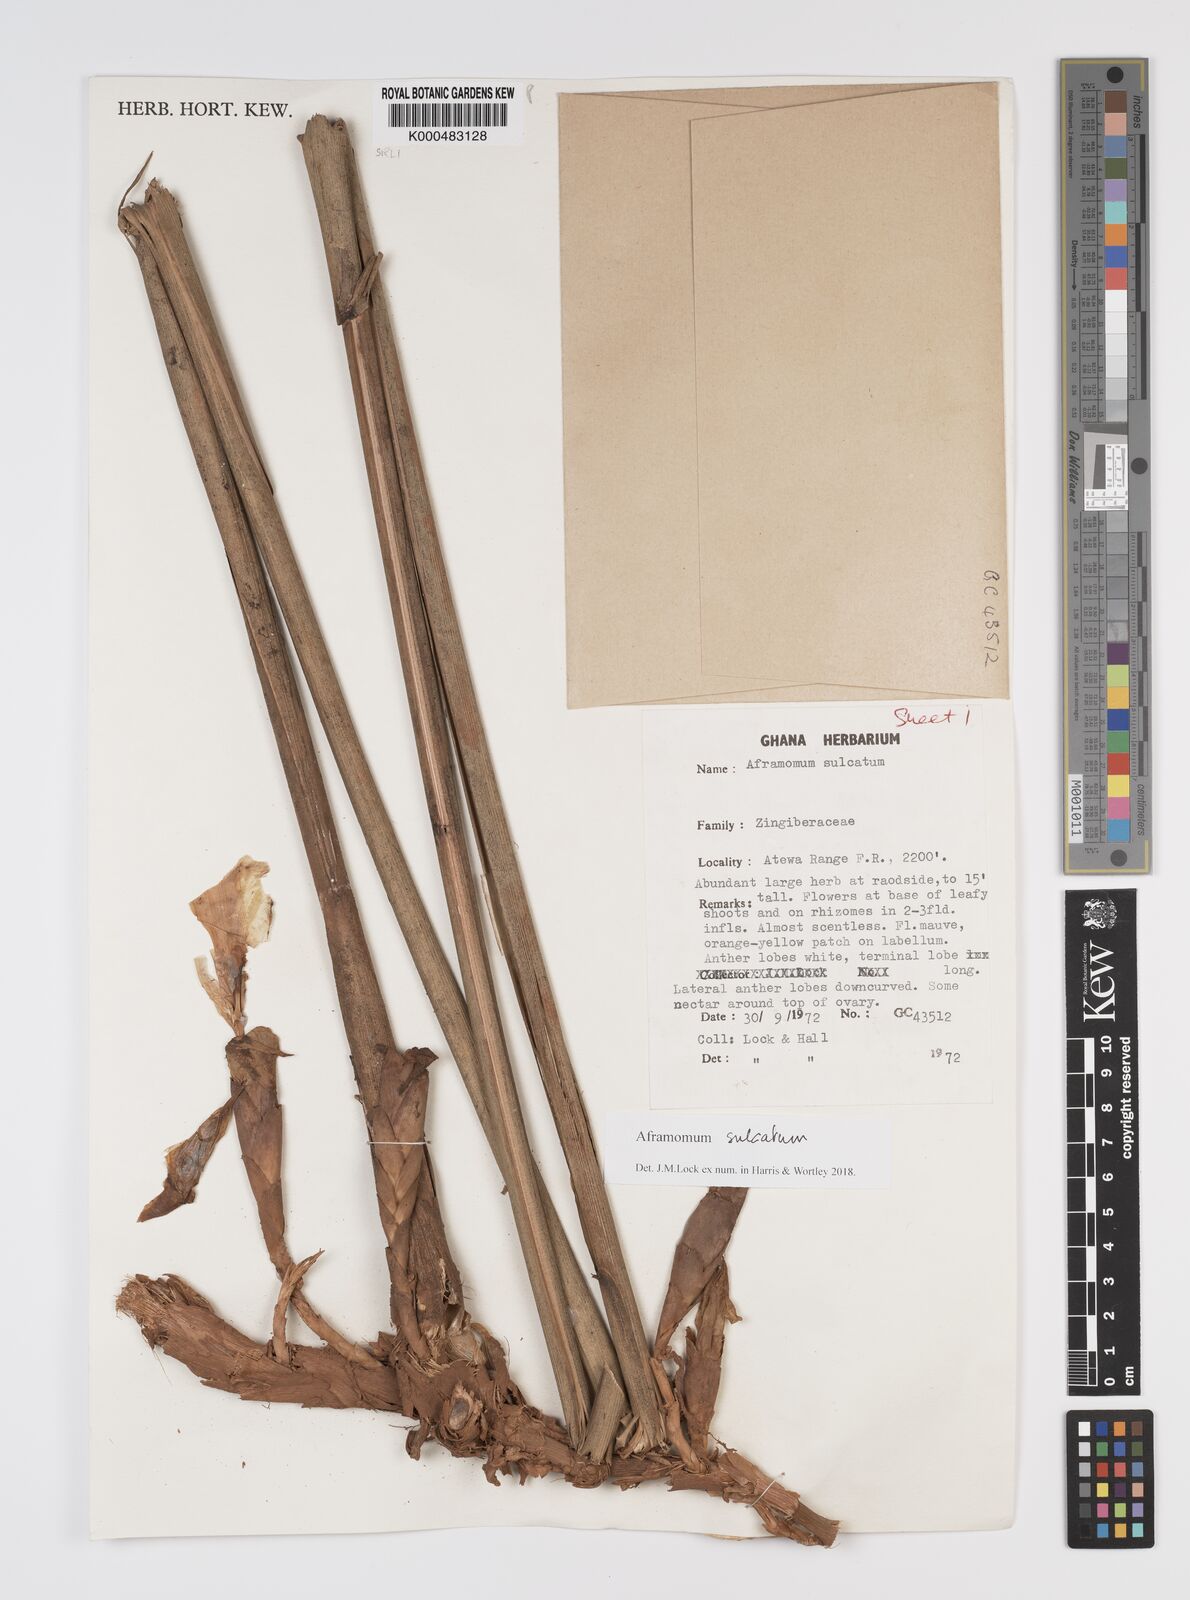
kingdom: Plantae
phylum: Tracheophyta
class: Liliopsida
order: Zingiberales
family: Zingiberaceae
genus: Aframomum
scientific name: Aframomum sulcatum
